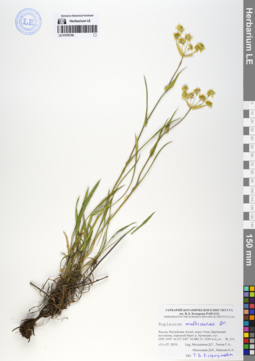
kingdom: Plantae
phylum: Tracheophyta
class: Magnoliopsida
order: Apiales
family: Apiaceae
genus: Bupleurum
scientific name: Bupleurum multinerve
